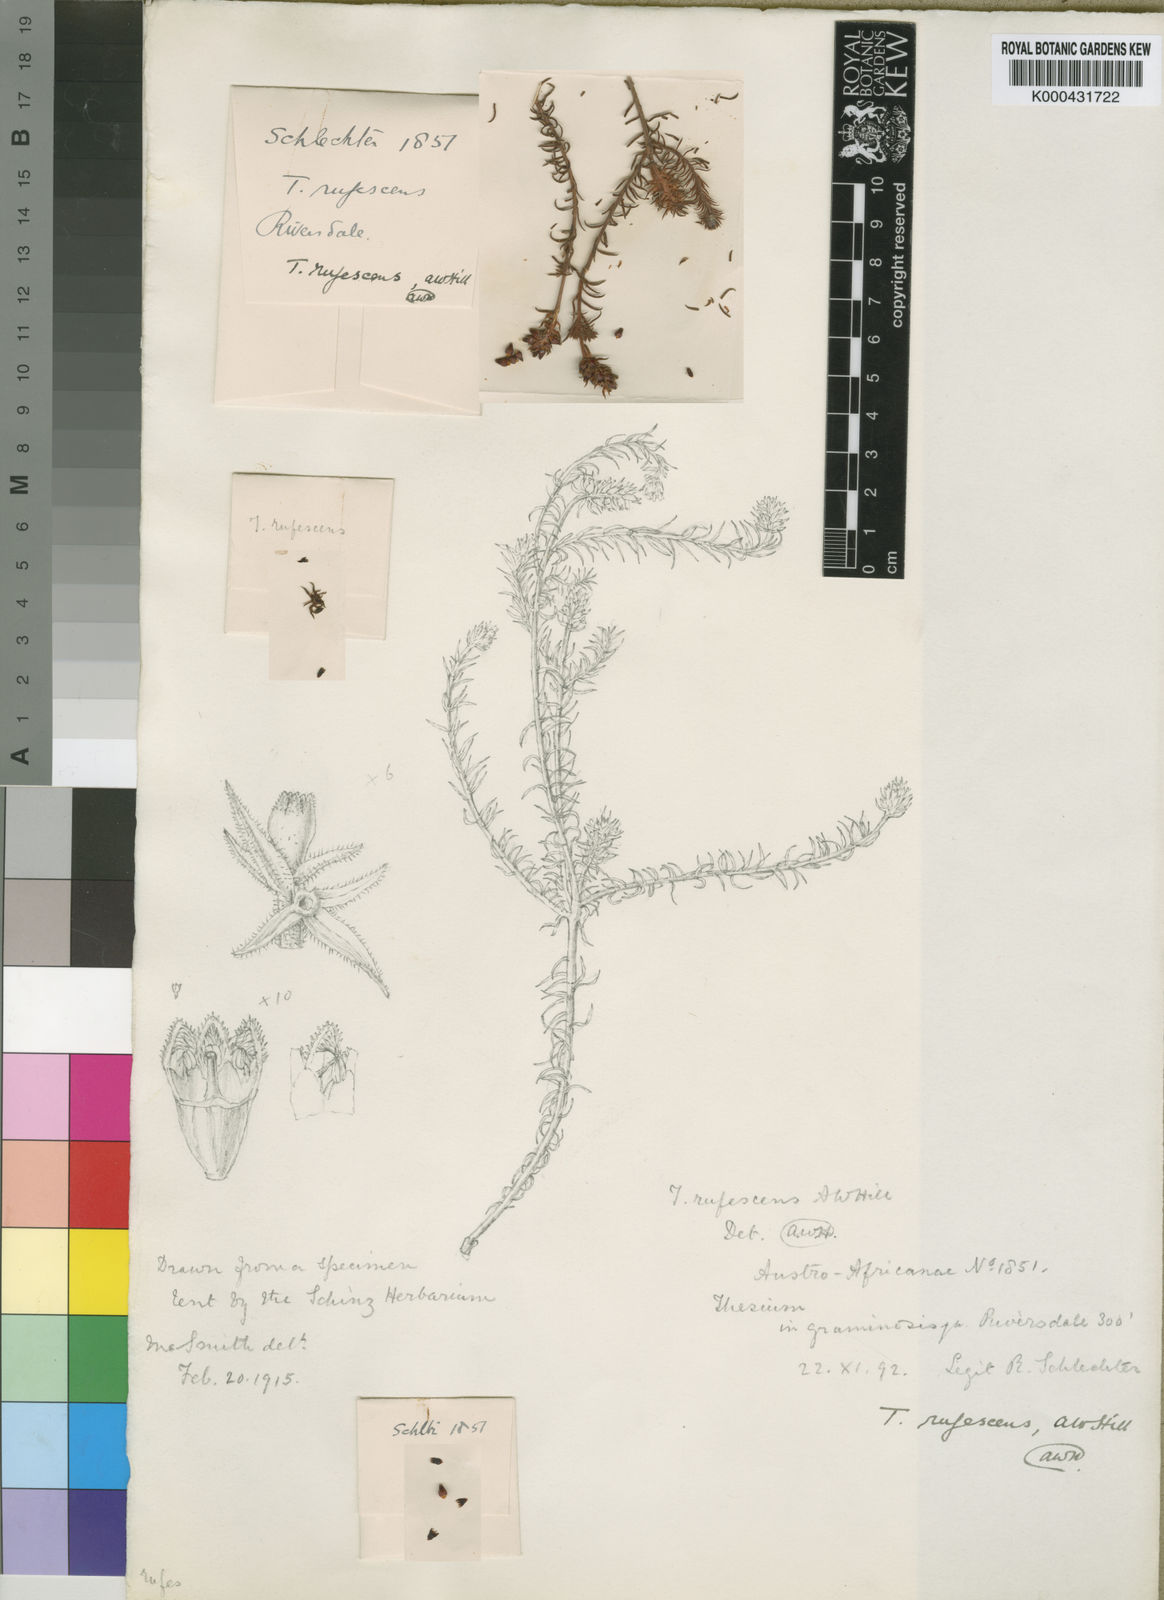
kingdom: Plantae
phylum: Tracheophyta
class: Magnoliopsida
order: Santalales
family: Thesiaceae
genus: Thesium
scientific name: Thesium rufescens
